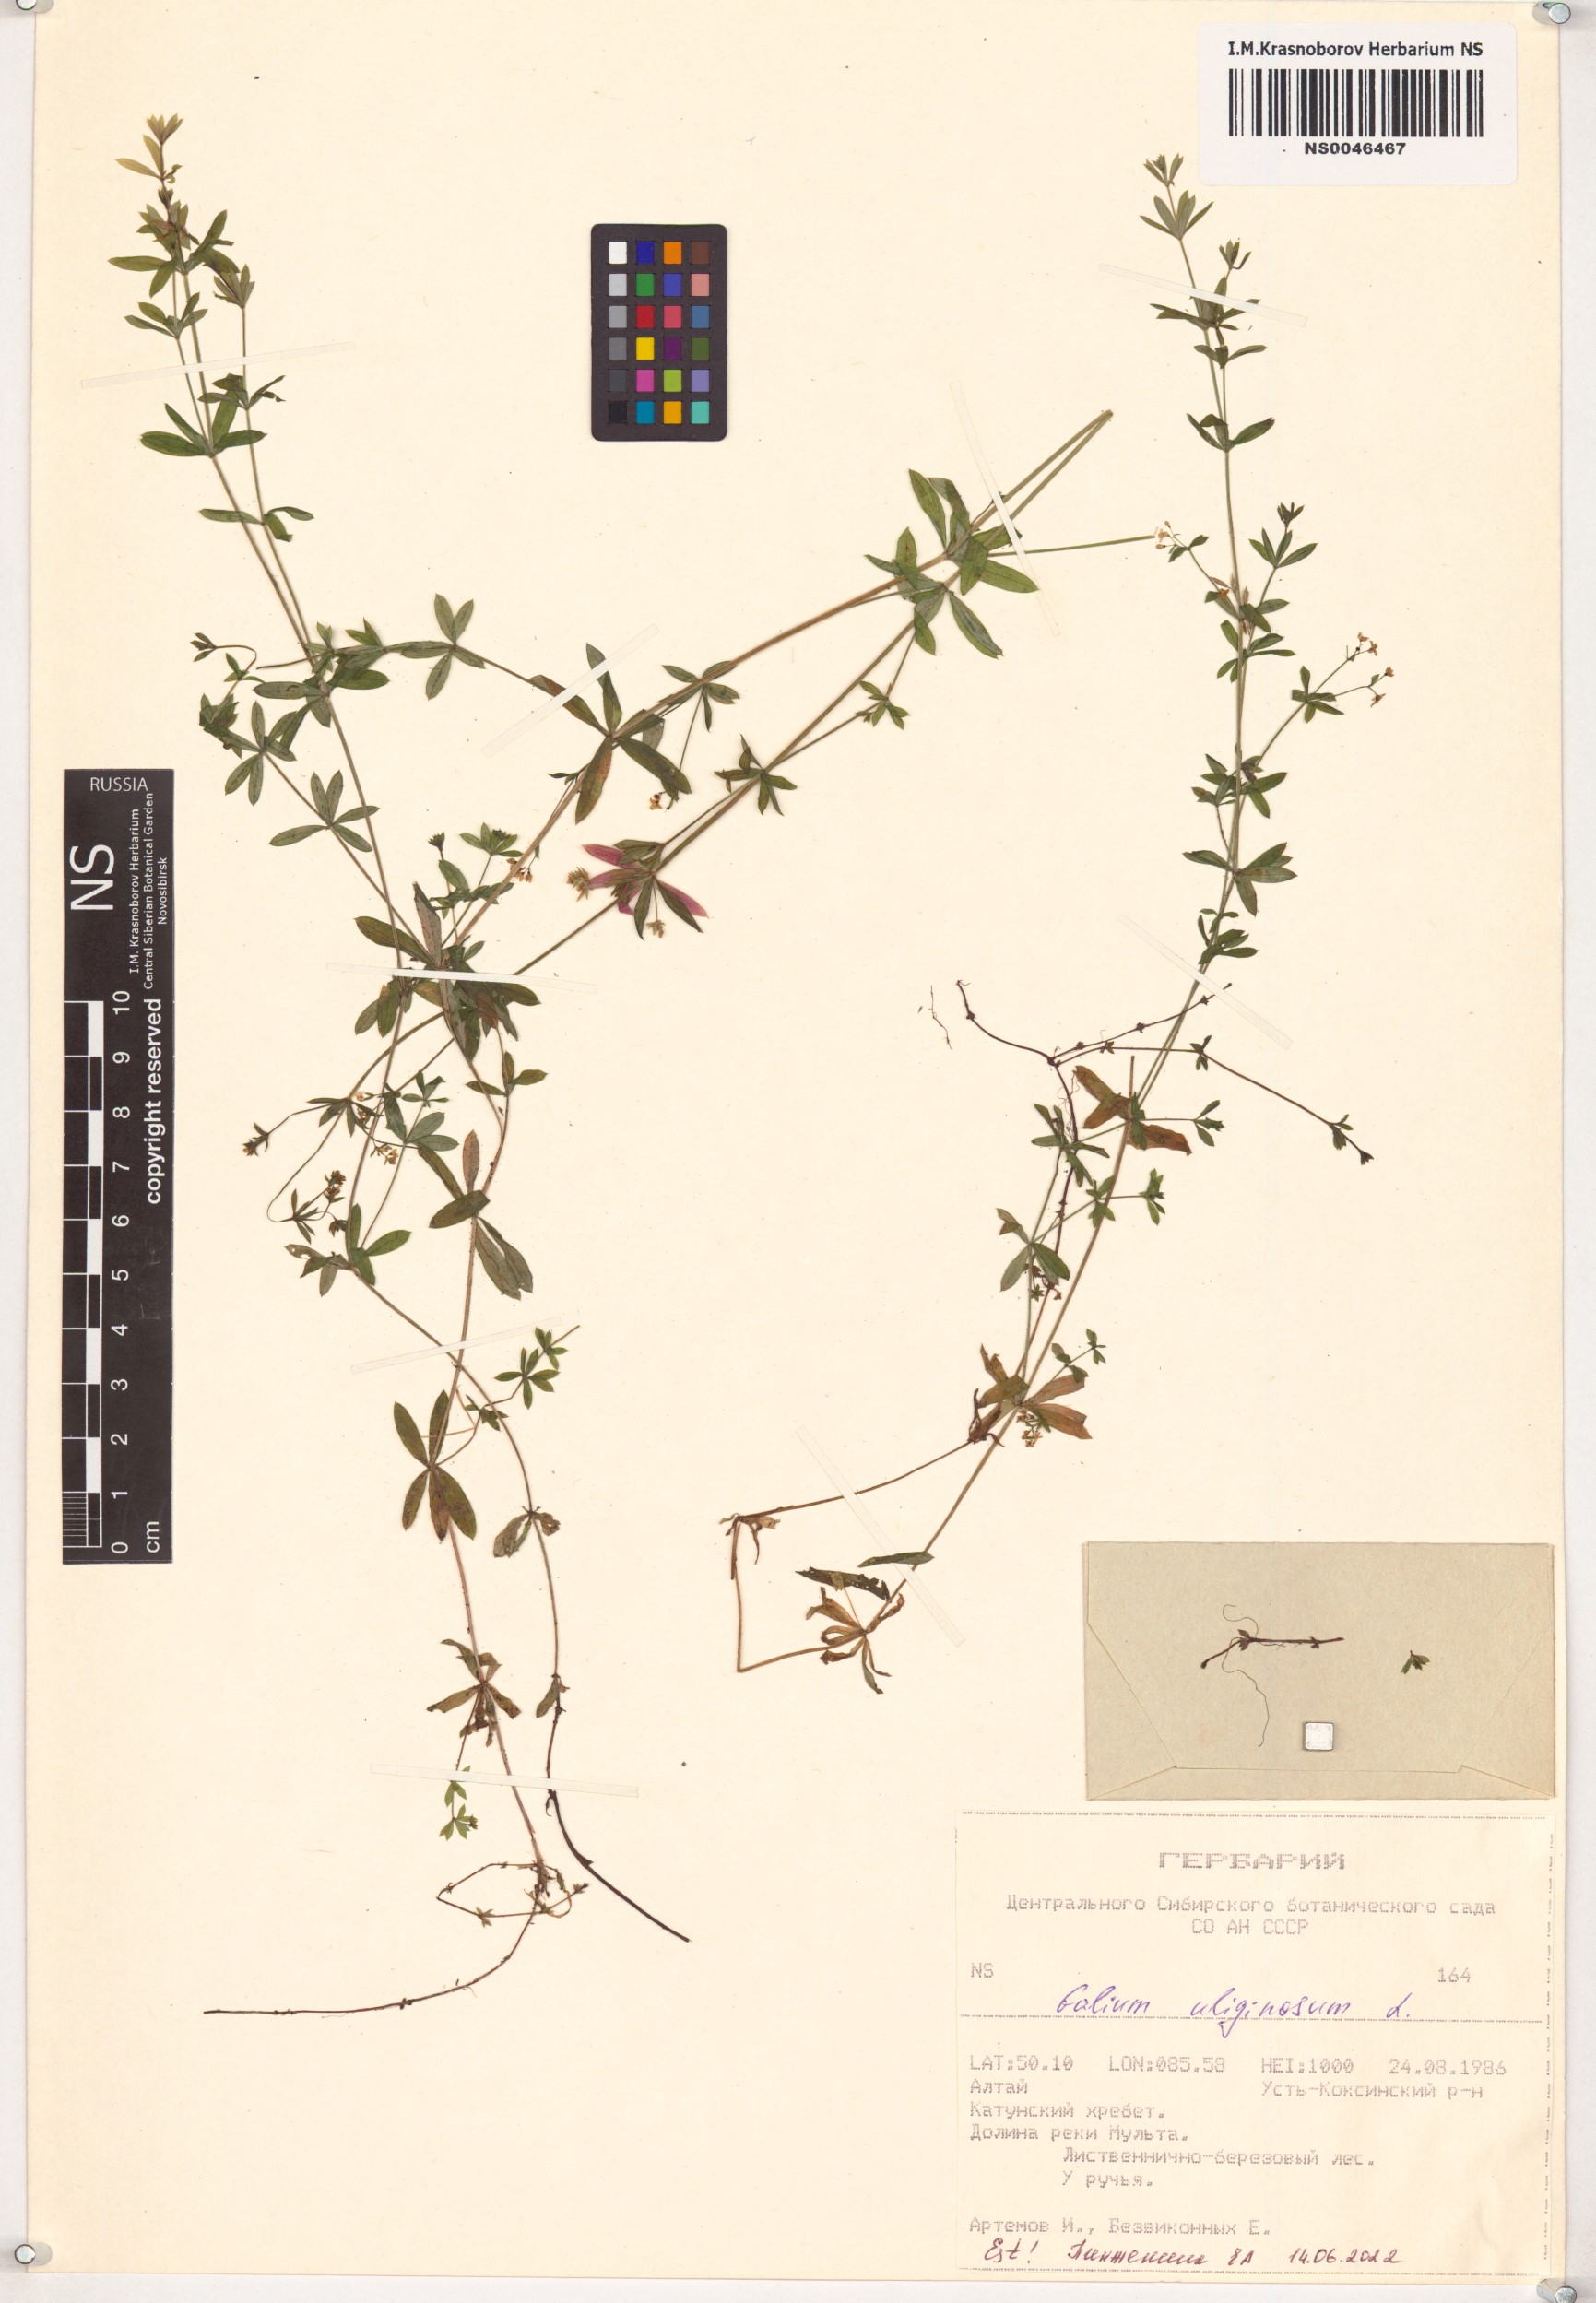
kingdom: Plantae
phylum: Tracheophyta
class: Magnoliopsida
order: Gentianales
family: Rubiaceae
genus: Galium
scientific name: Galium uliginosum
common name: Fen bedstraw
